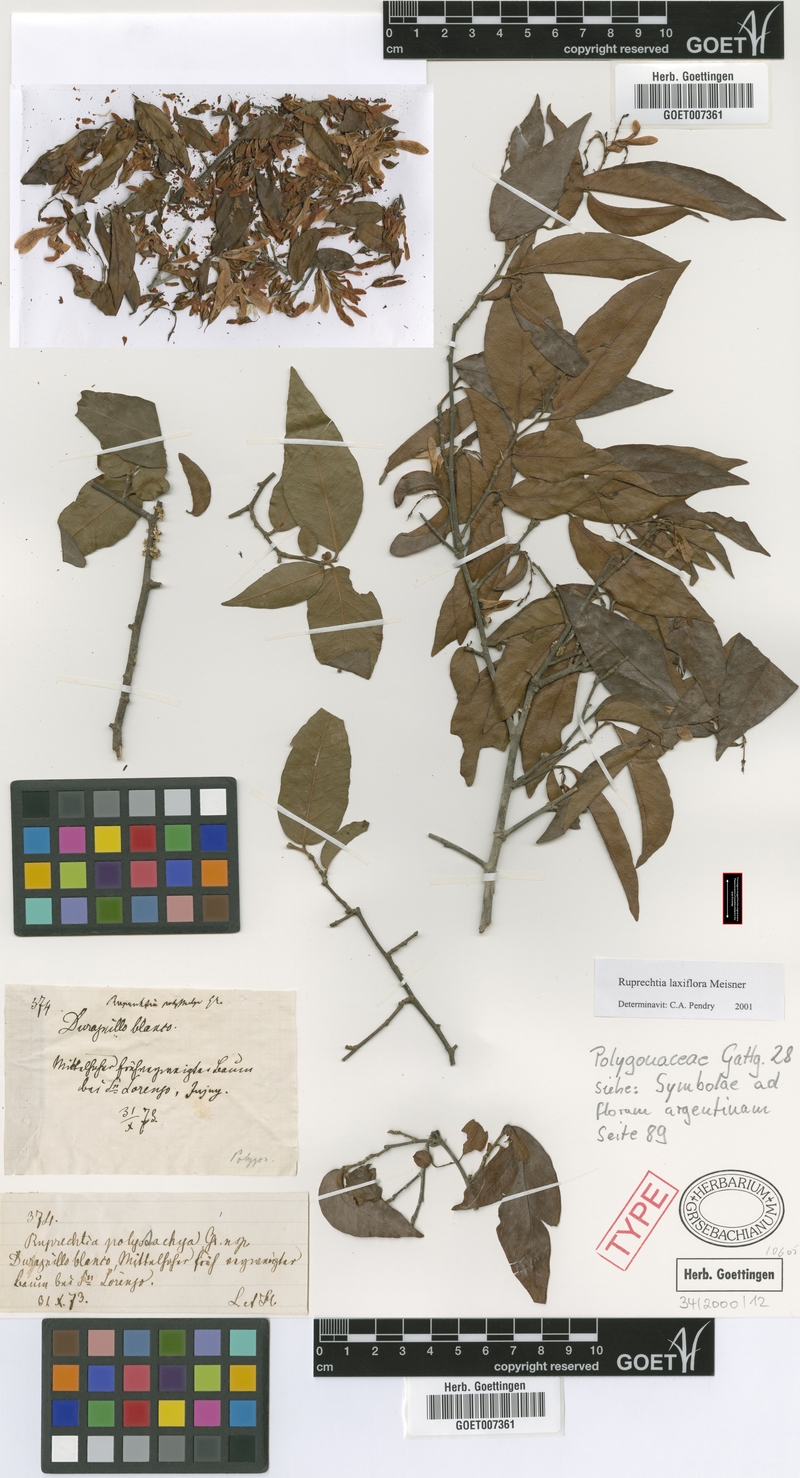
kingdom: Plantae
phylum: Tracheophyta
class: Magnoliopsida
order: Caryophyllales
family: Polygonaceae
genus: Ruprechtia
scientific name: Ruprechtia laxiflora
